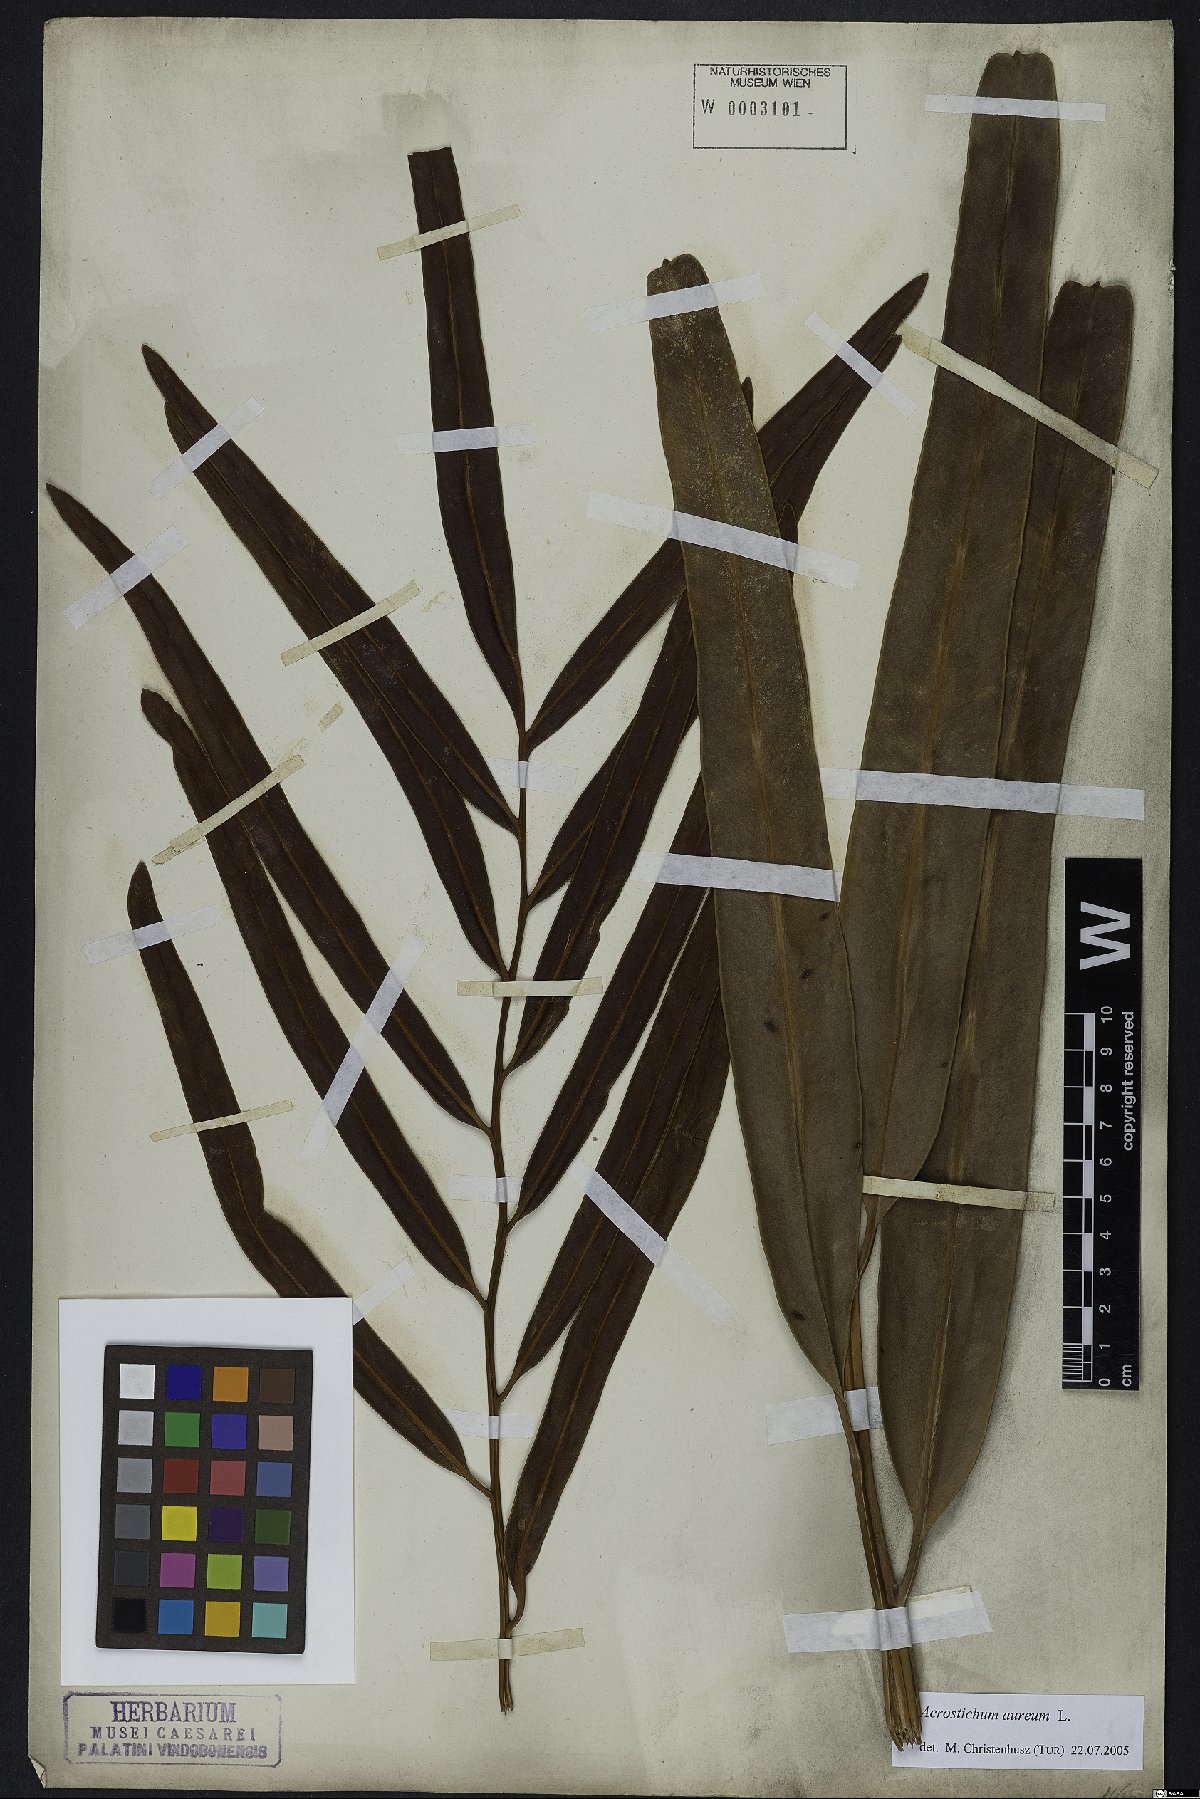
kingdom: Plantae
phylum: Tracheophyta
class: Polypodiopsida
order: Polypodiales
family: Pteridaceae
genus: Acrostichum
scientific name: Acrostichum aureum
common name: Leather fern
